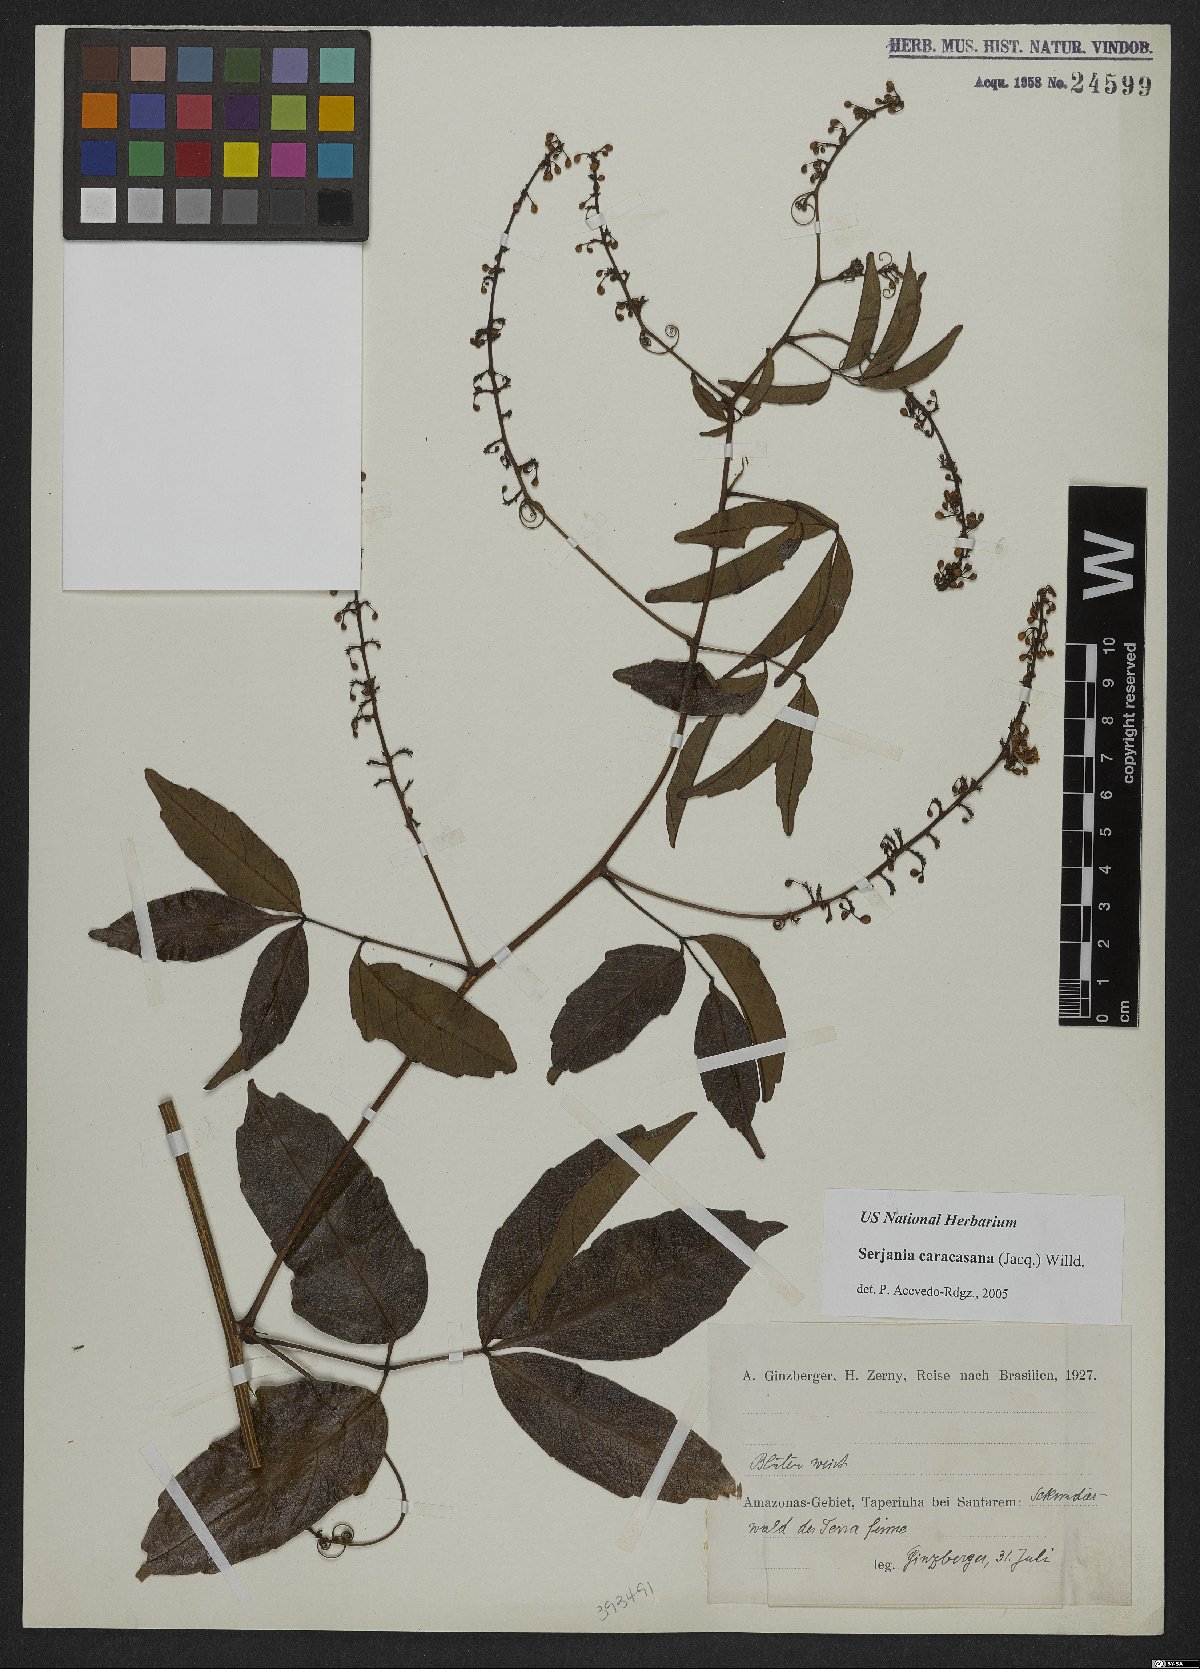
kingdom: Plantae
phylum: Tracheophyta
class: Magnoliopsida
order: Sapindales
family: Sapindaceae
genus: Serjania
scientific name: Serjania caracasana
